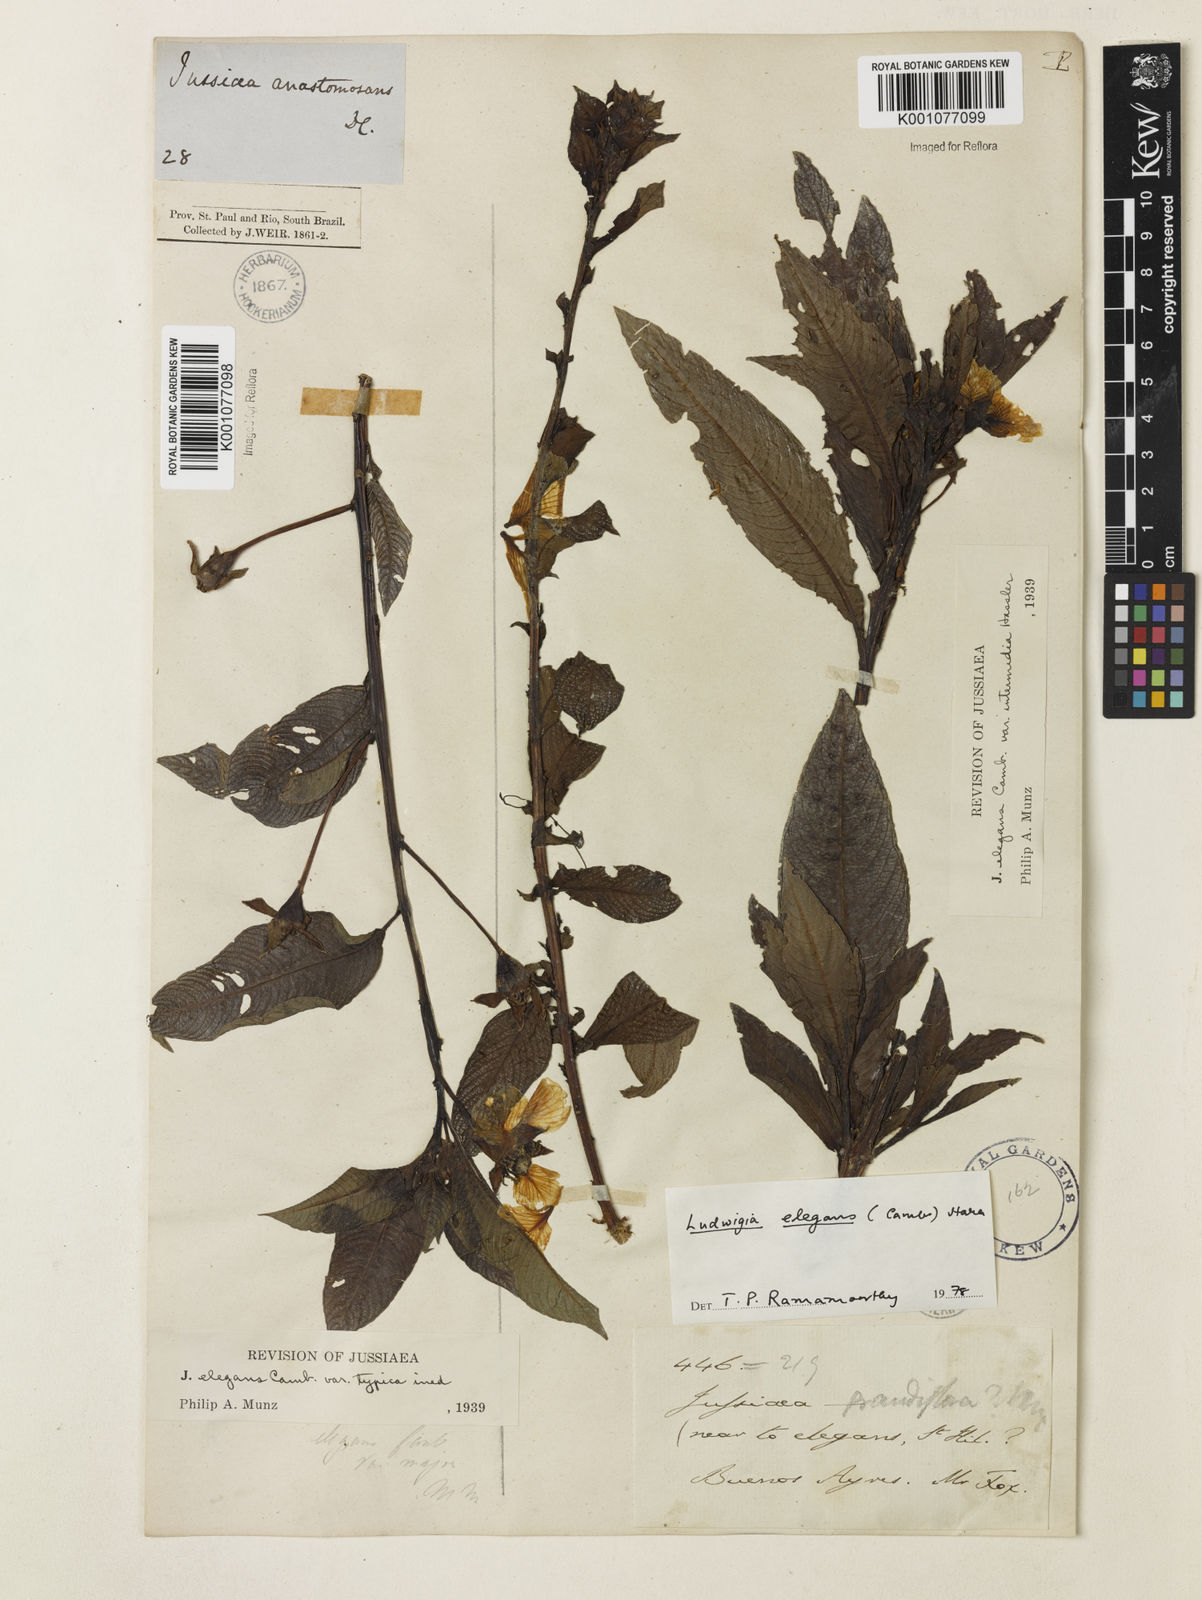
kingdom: Plantae
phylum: Tracheophyta
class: Magnoliopsida
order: Myrtales
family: Onagraceae
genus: Ludwigia
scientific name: Ludwigia elegans
